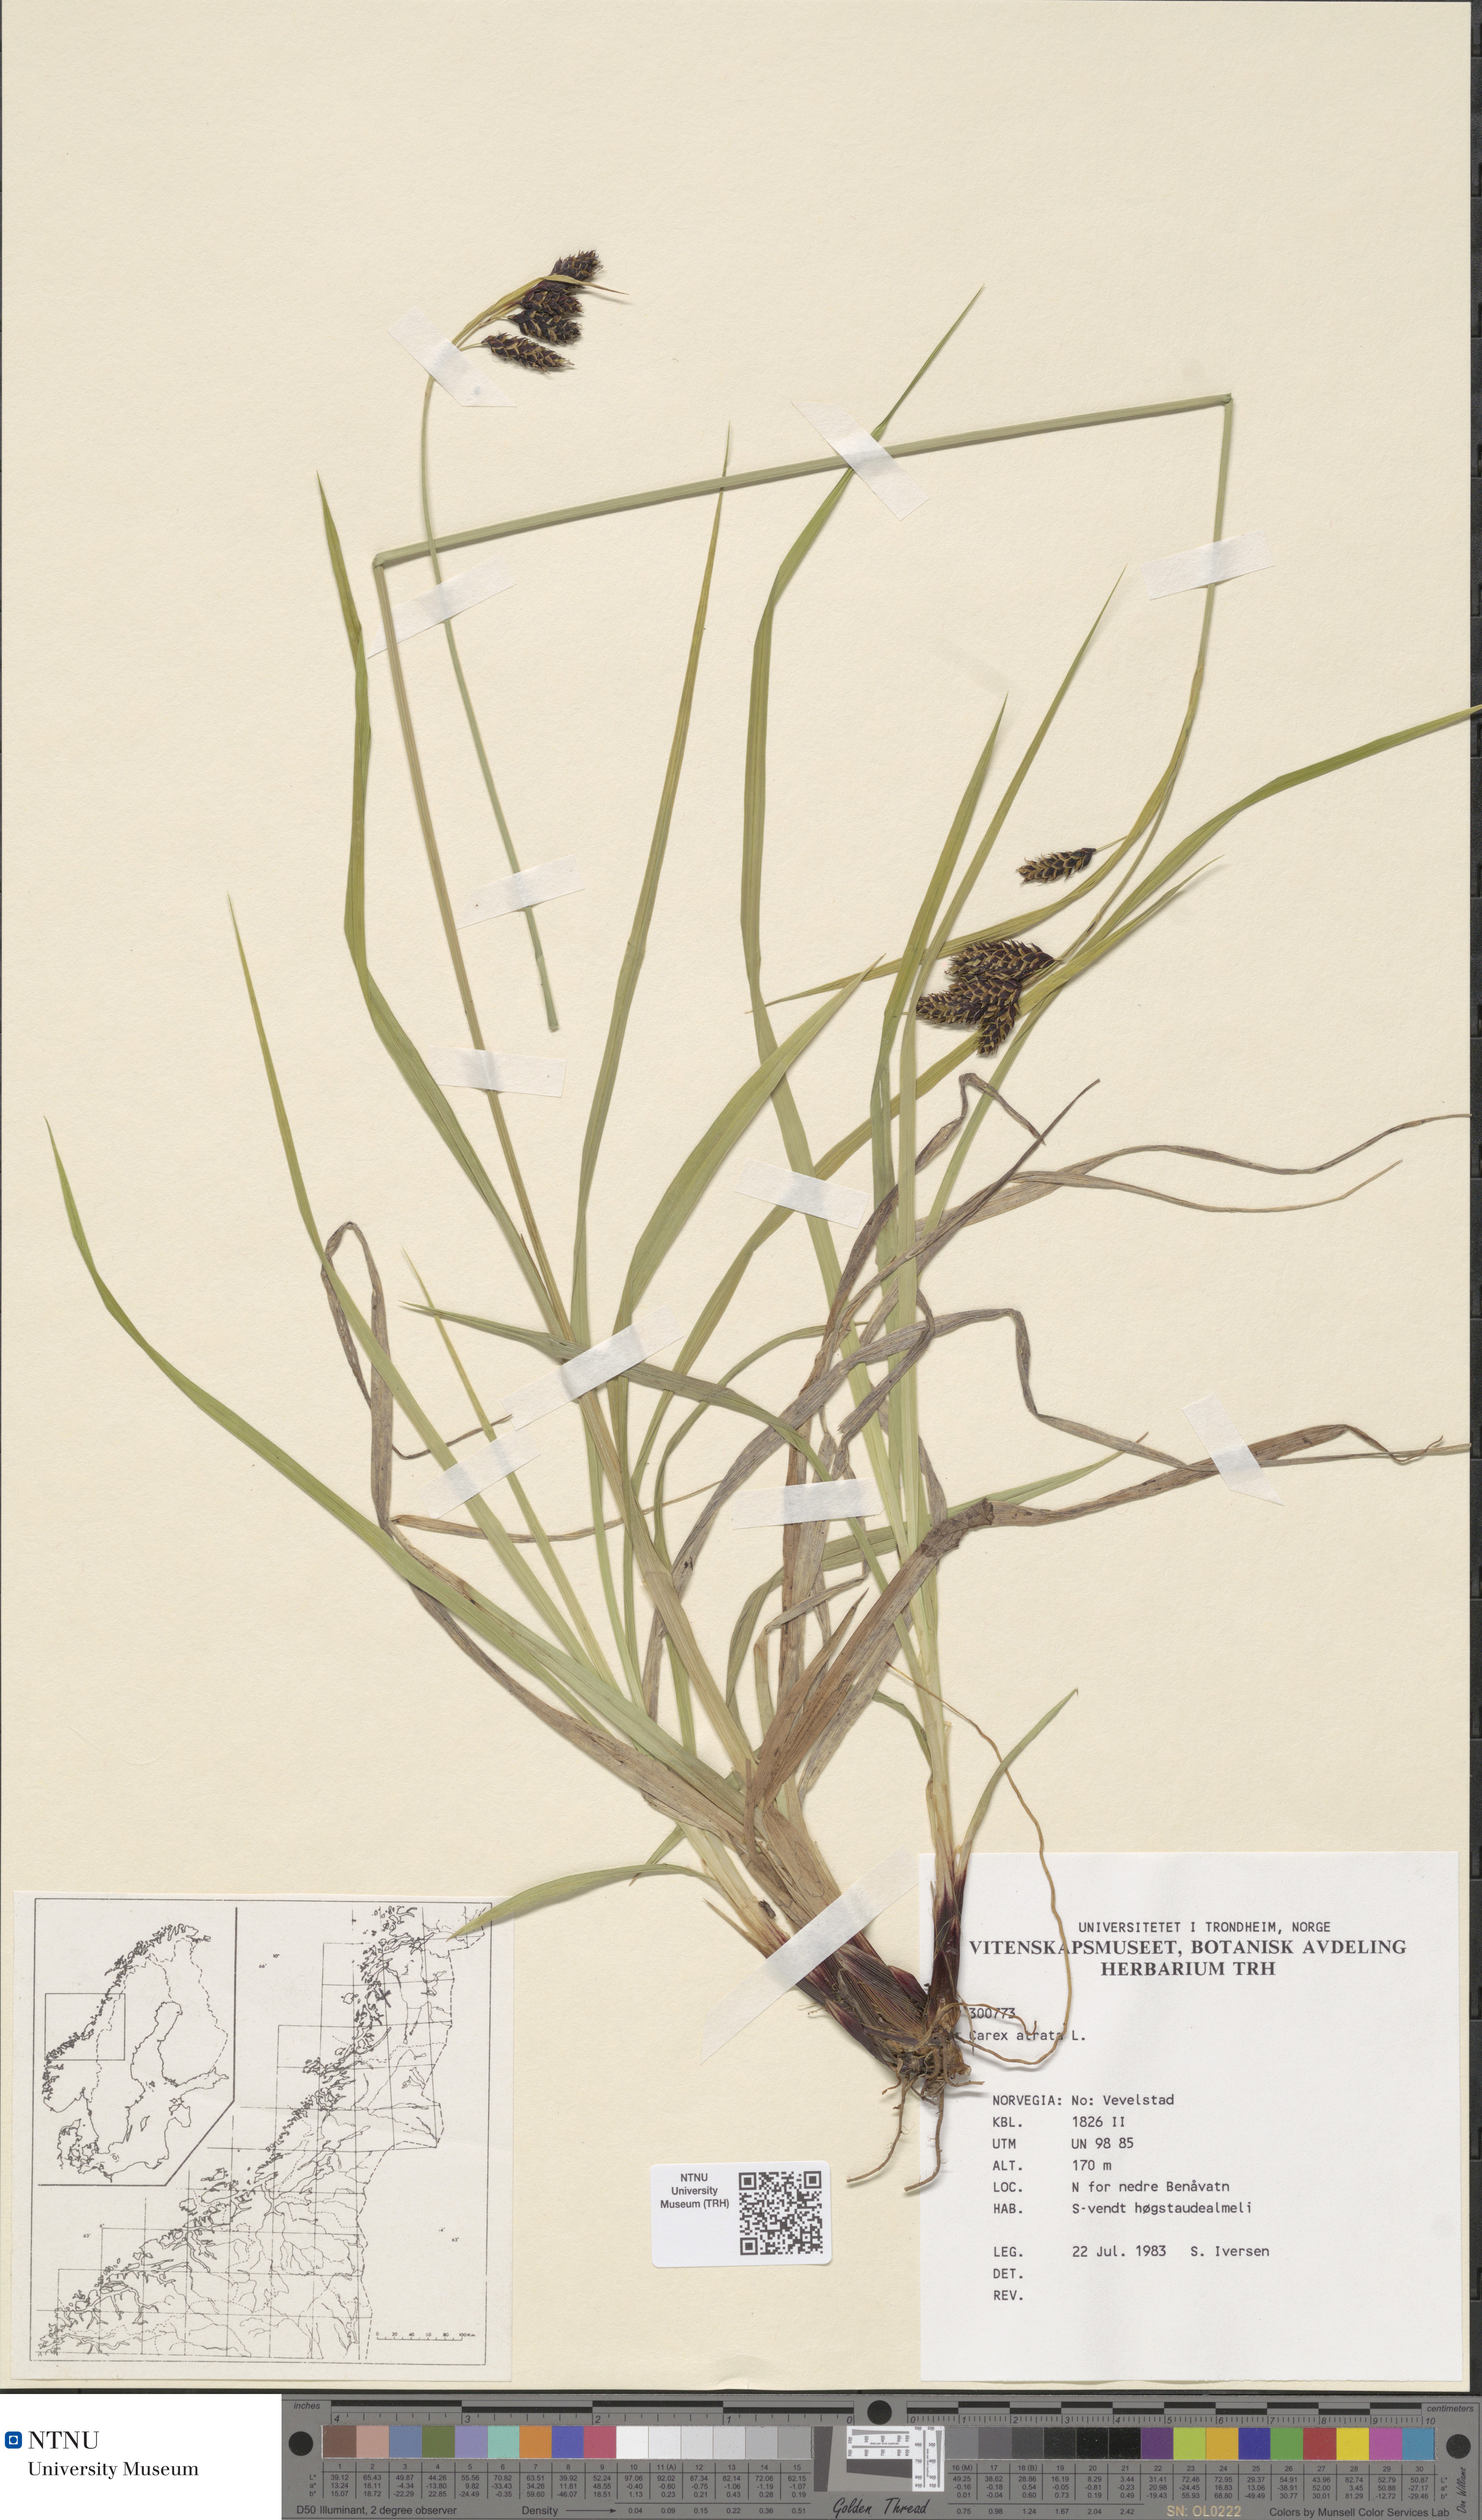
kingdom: Plantae
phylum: Tracheophyta
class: Liliopsida
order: Poales
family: Cyperaceae
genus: Carex
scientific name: Carex atrata
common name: Black alpine sedge
